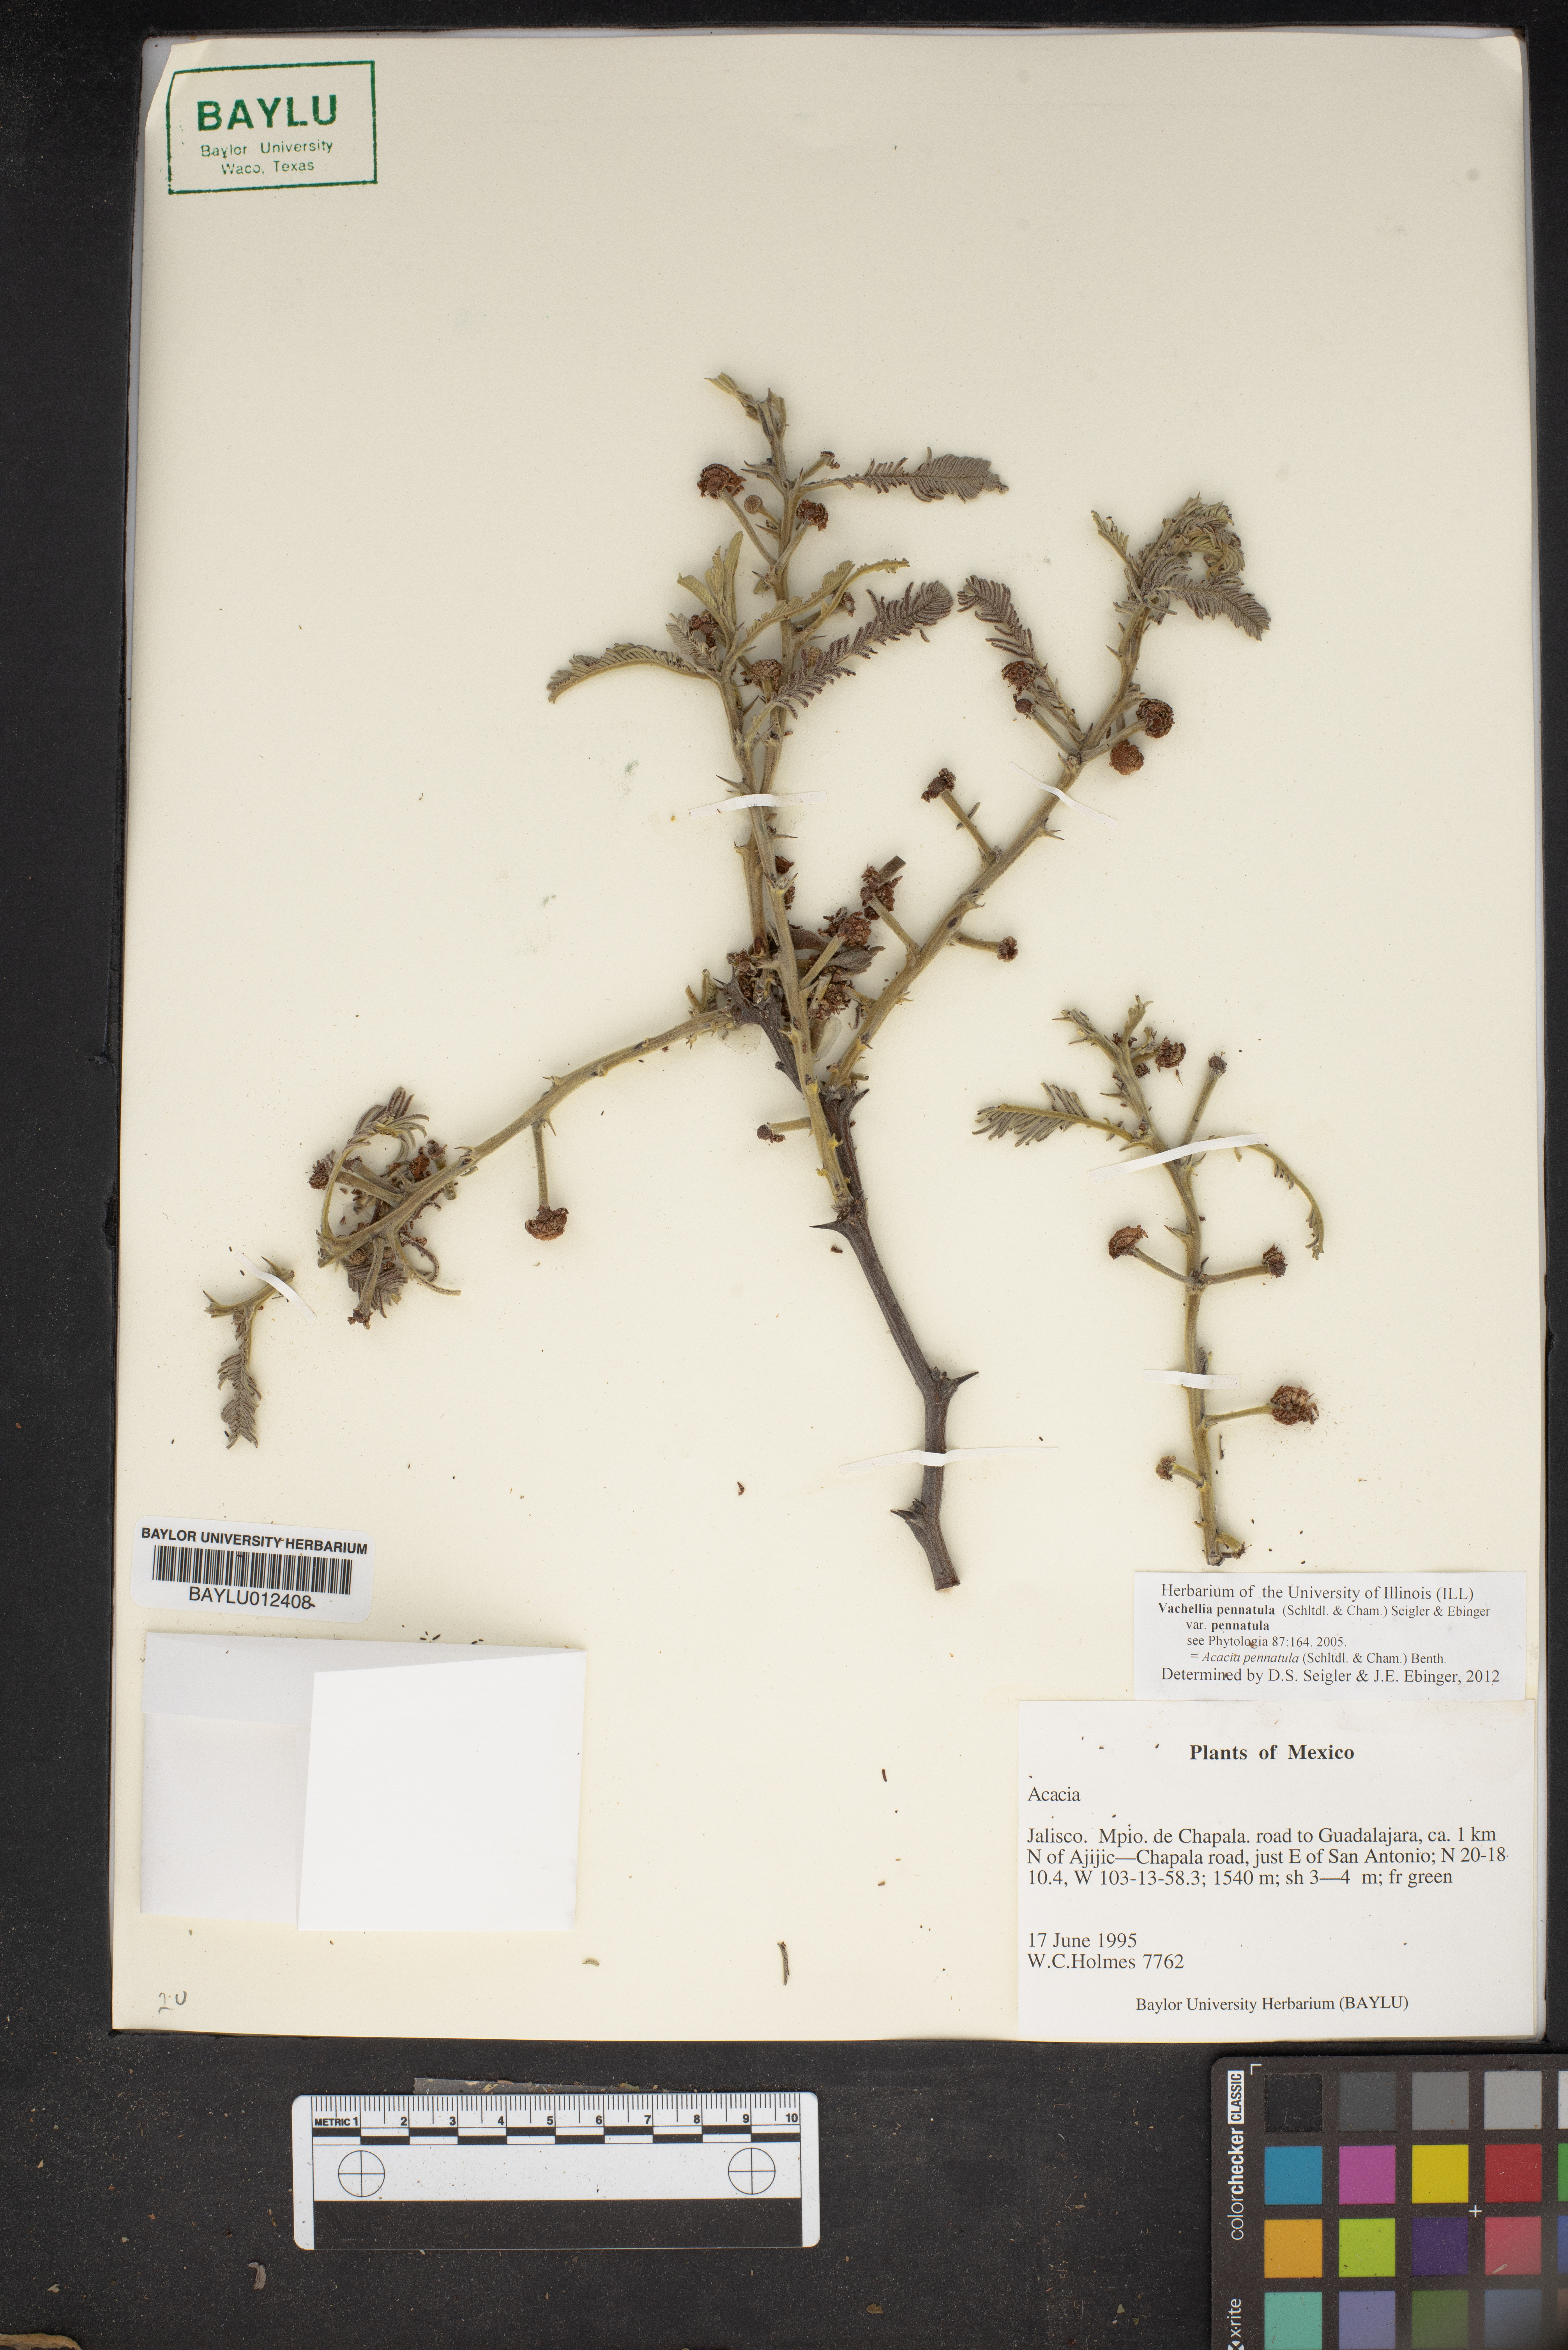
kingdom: Plantae
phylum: Tracheophyta
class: Magnoliopsida
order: Fabales
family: Fabaceae
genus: Acacia
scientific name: Acacia
